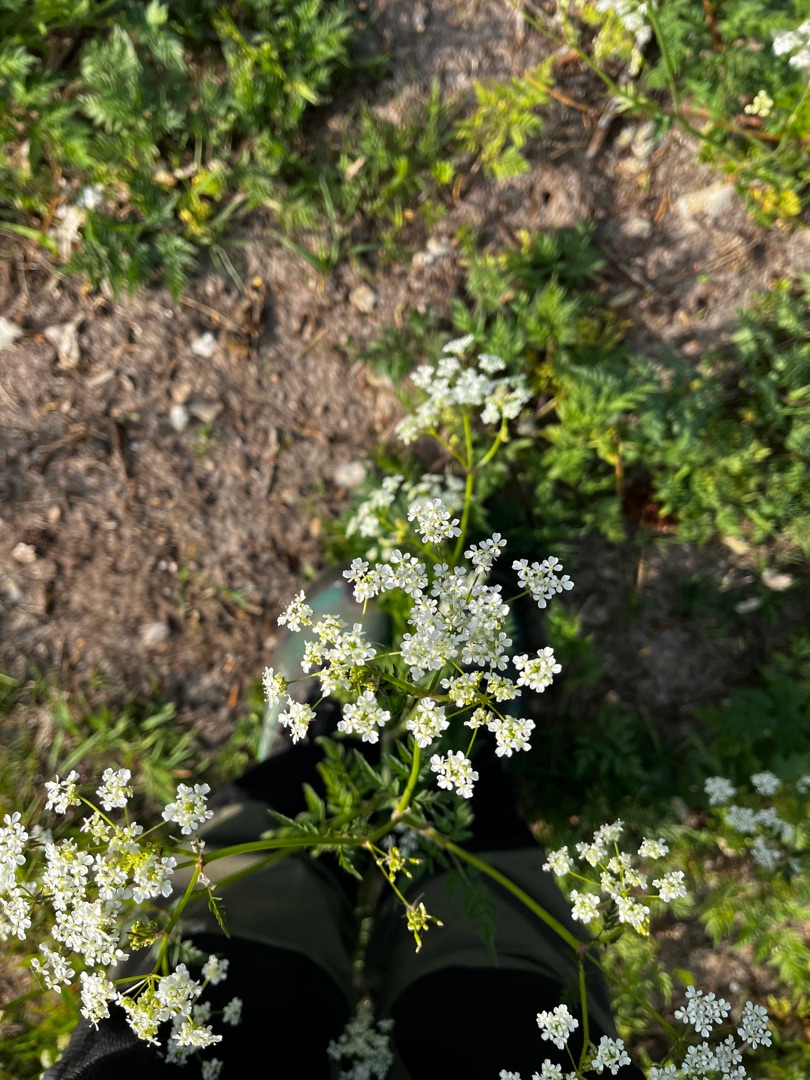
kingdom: Plantae
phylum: Tracheophyta
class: Magnoliopsida
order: Apiales
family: Apiaceae
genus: Anthriscus
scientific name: Anthriscus sylvestris
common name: Vild kørvel
